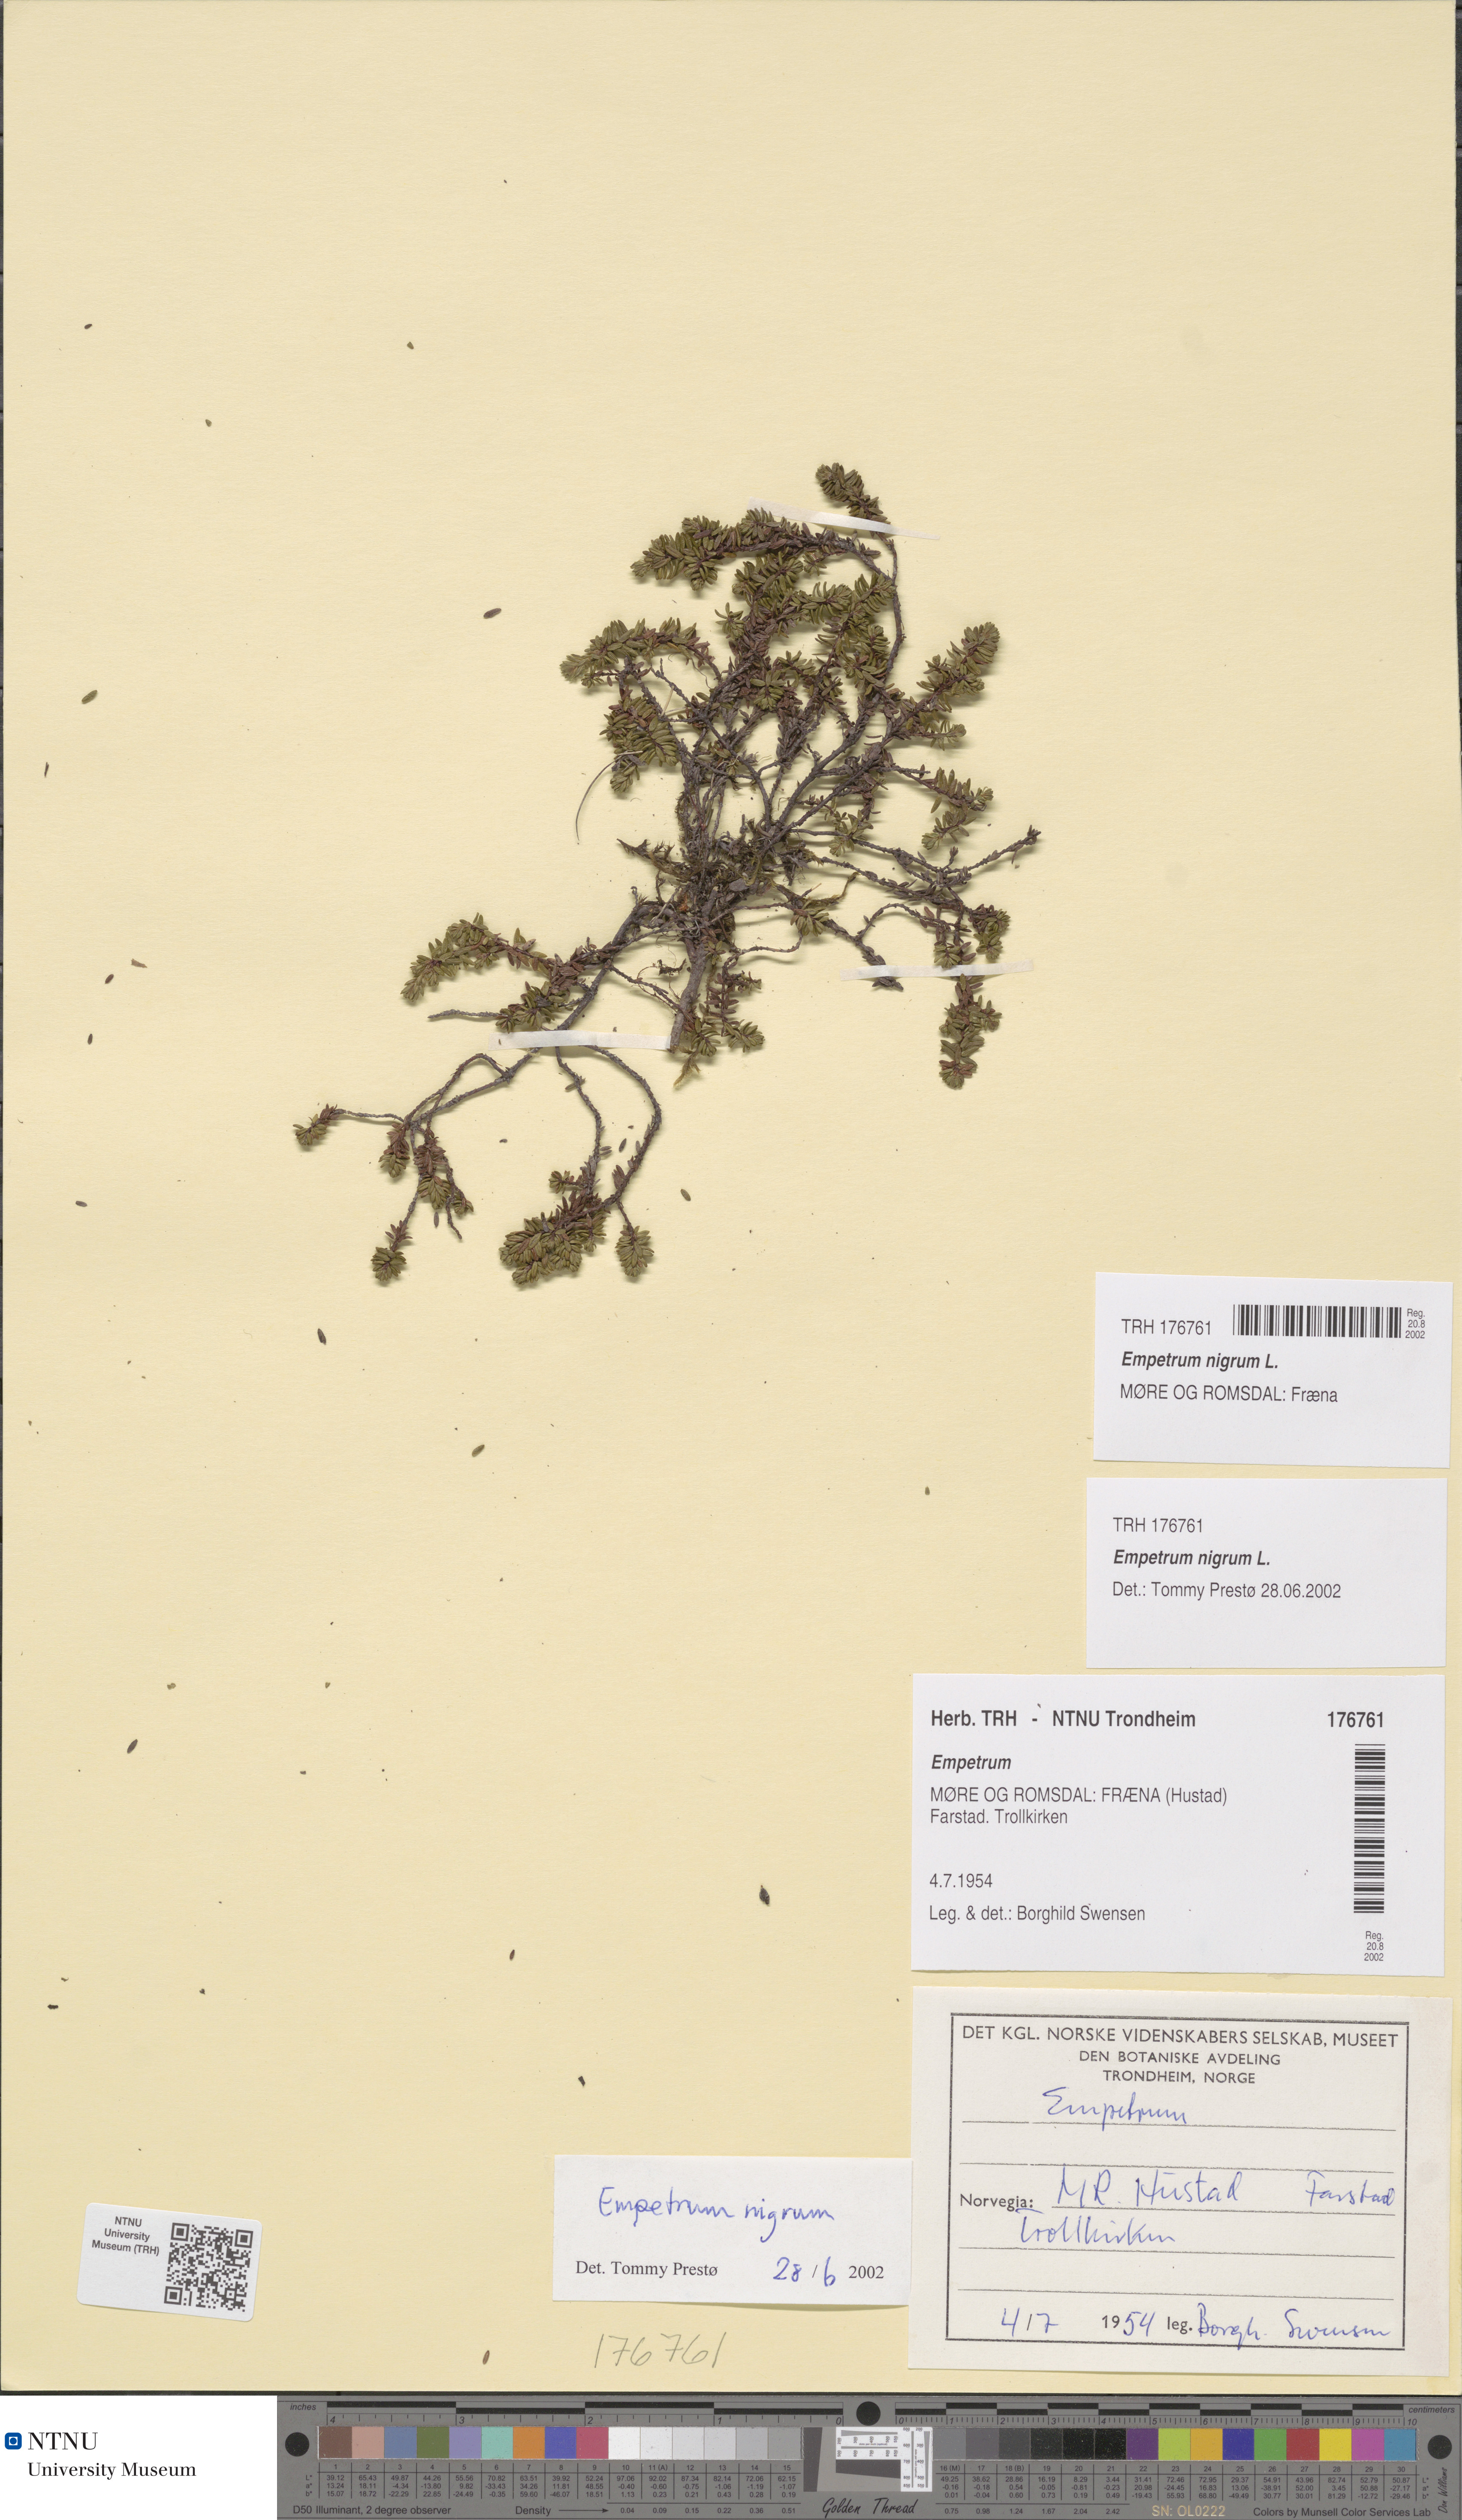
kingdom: Plantae
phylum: Tracheophyta
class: Magnoliopsida
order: Ericales
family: Ericaceae
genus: Empetrum
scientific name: Empetrum nigrum
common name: Black crowberry
